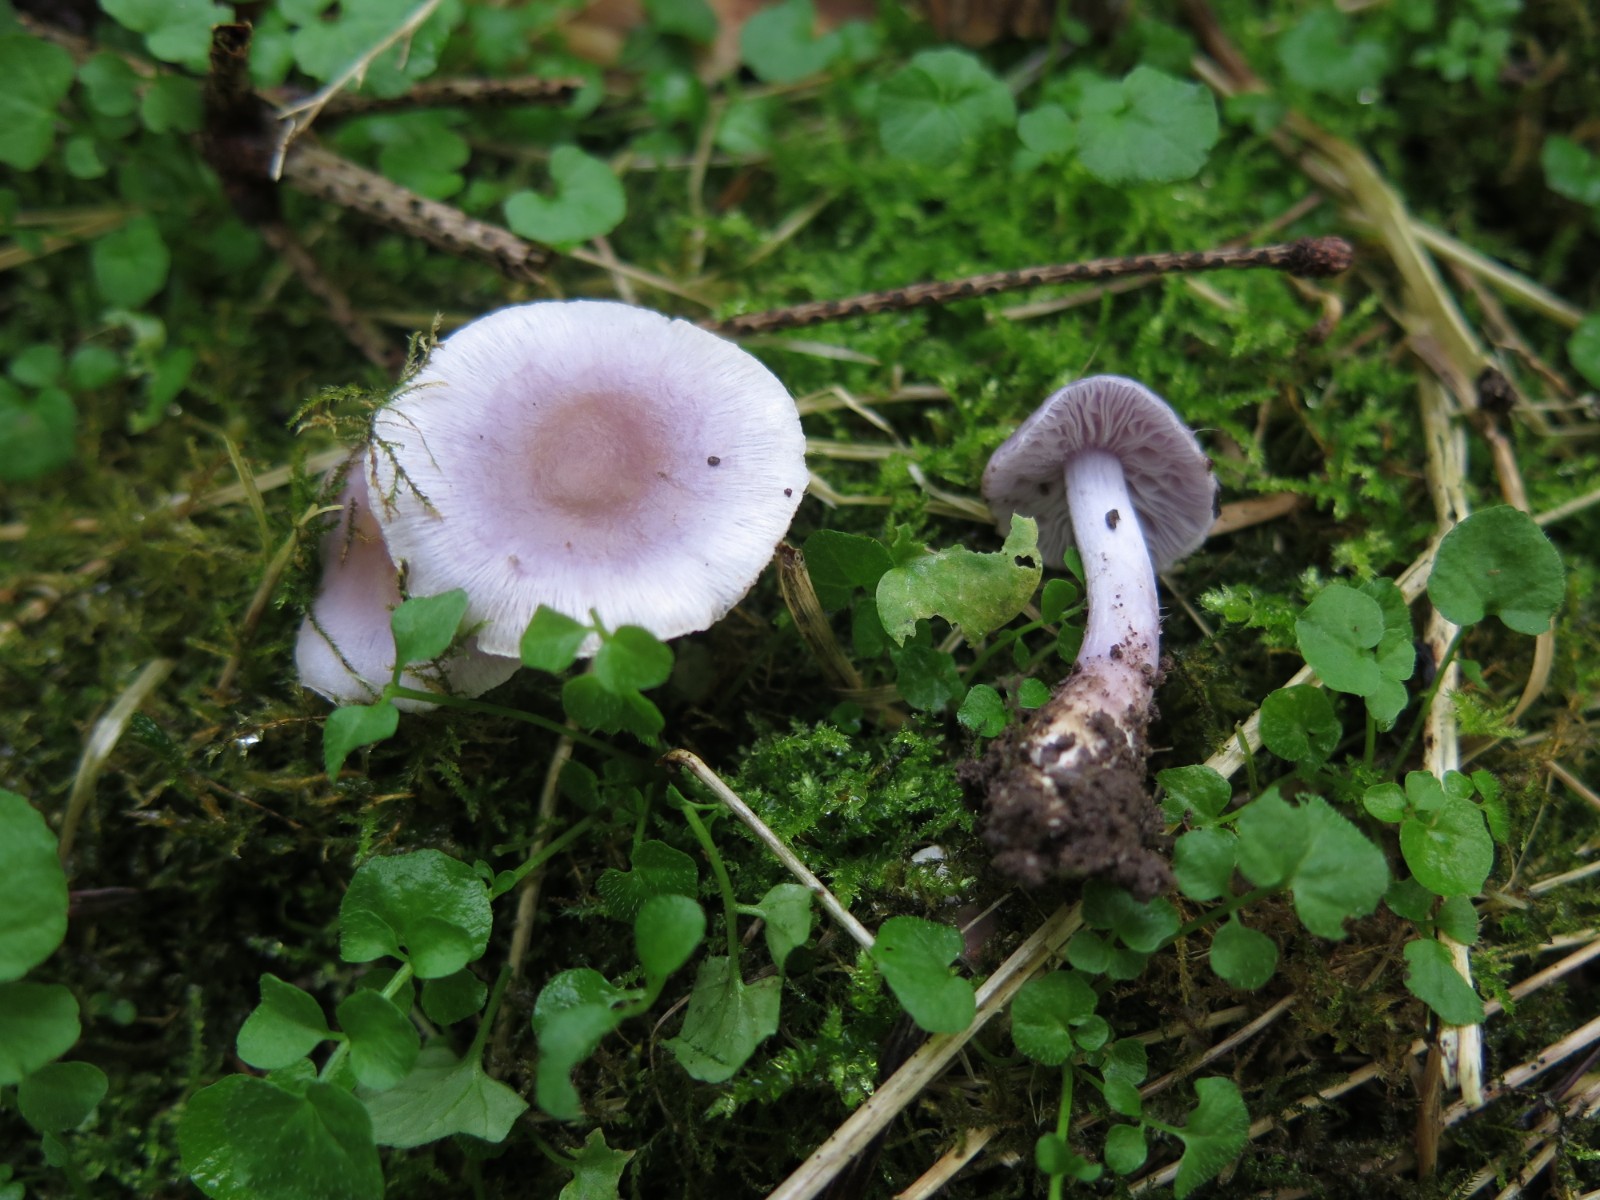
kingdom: Fungi
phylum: Basidiomycota
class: Agaricomycetes
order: Agaricales
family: Inocybaceae
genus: Inocybe
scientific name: Inocybe geophylla
